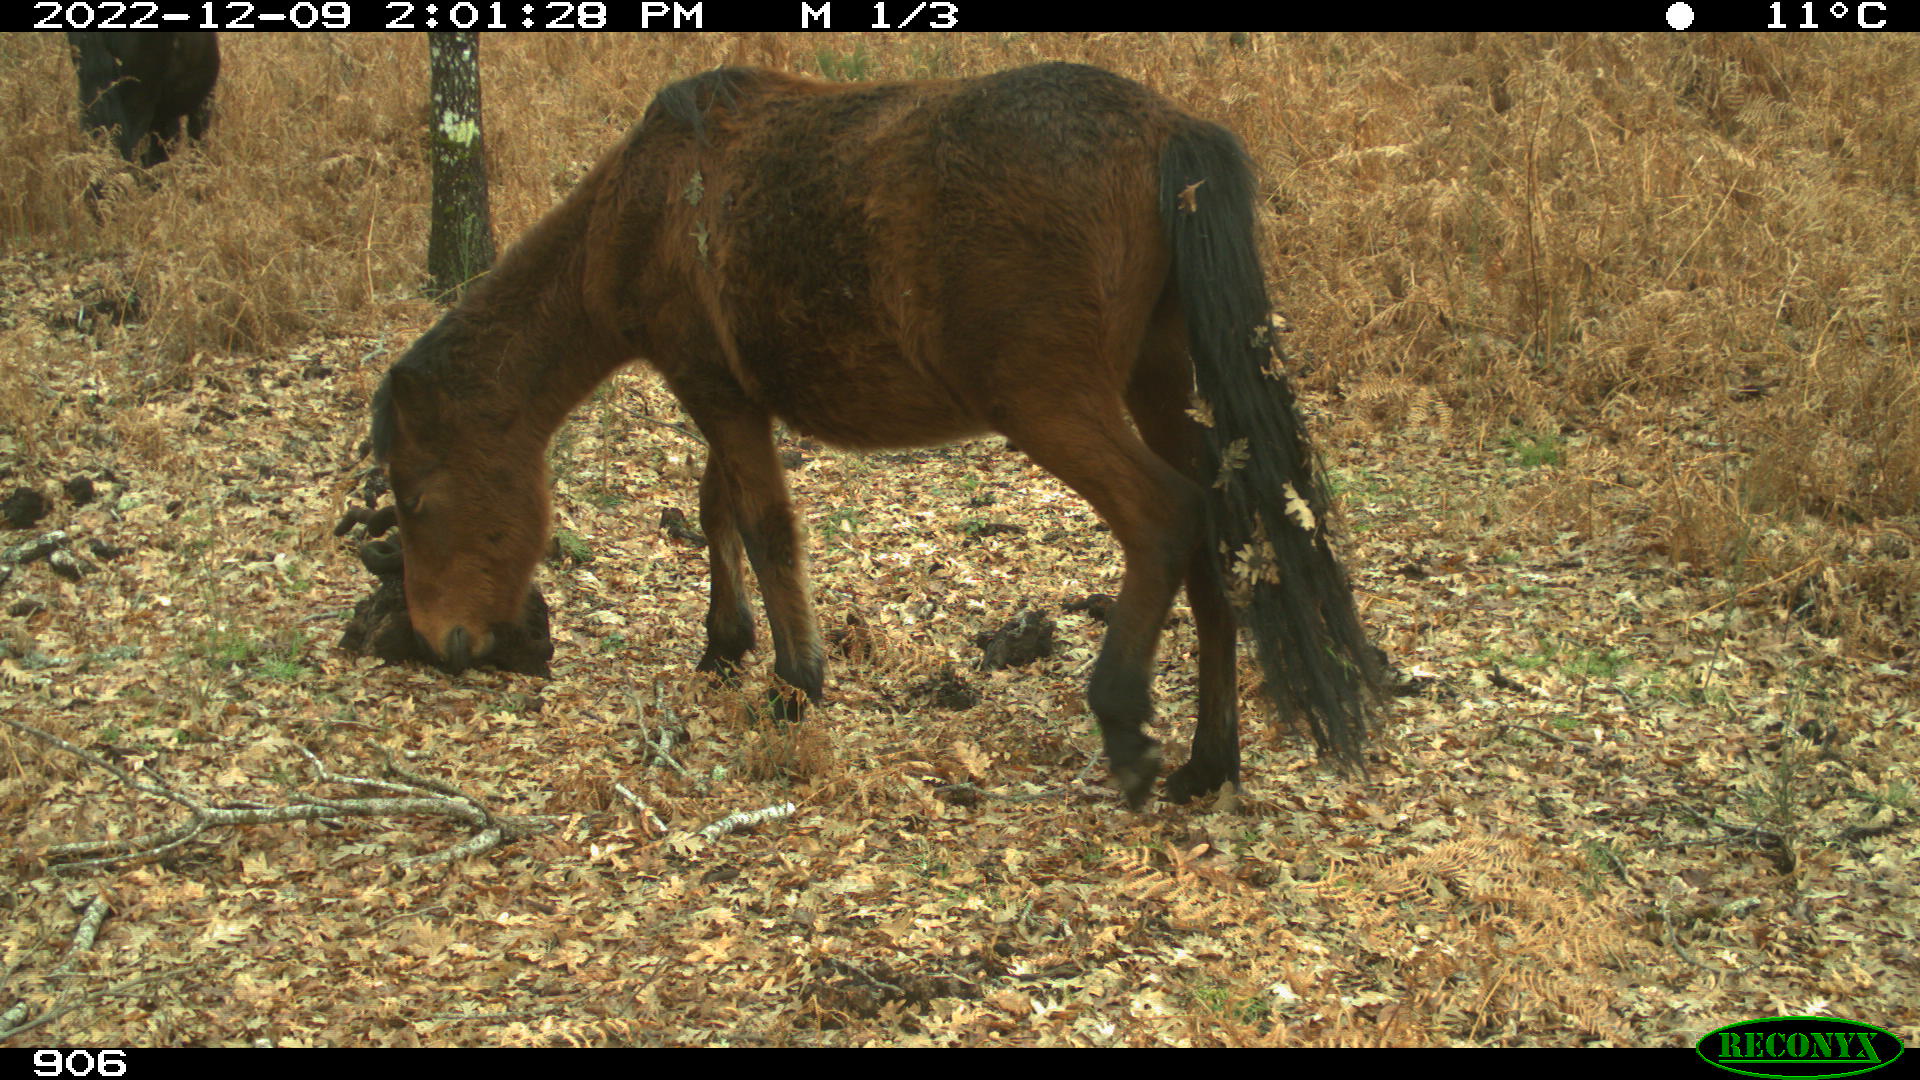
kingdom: Animalia
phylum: Chordata
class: Mammalia
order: Perissodactyla
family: Equidae
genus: Equus
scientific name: Equus caballus
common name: Horse
